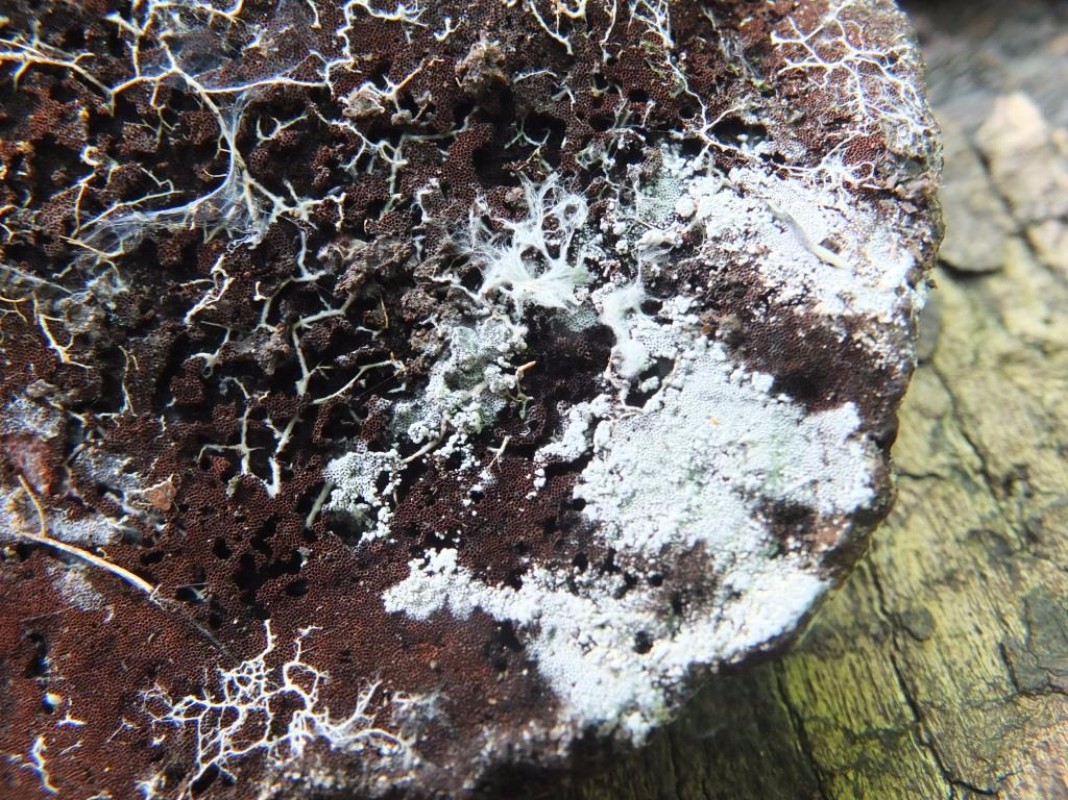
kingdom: Fungi
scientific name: Fungi
